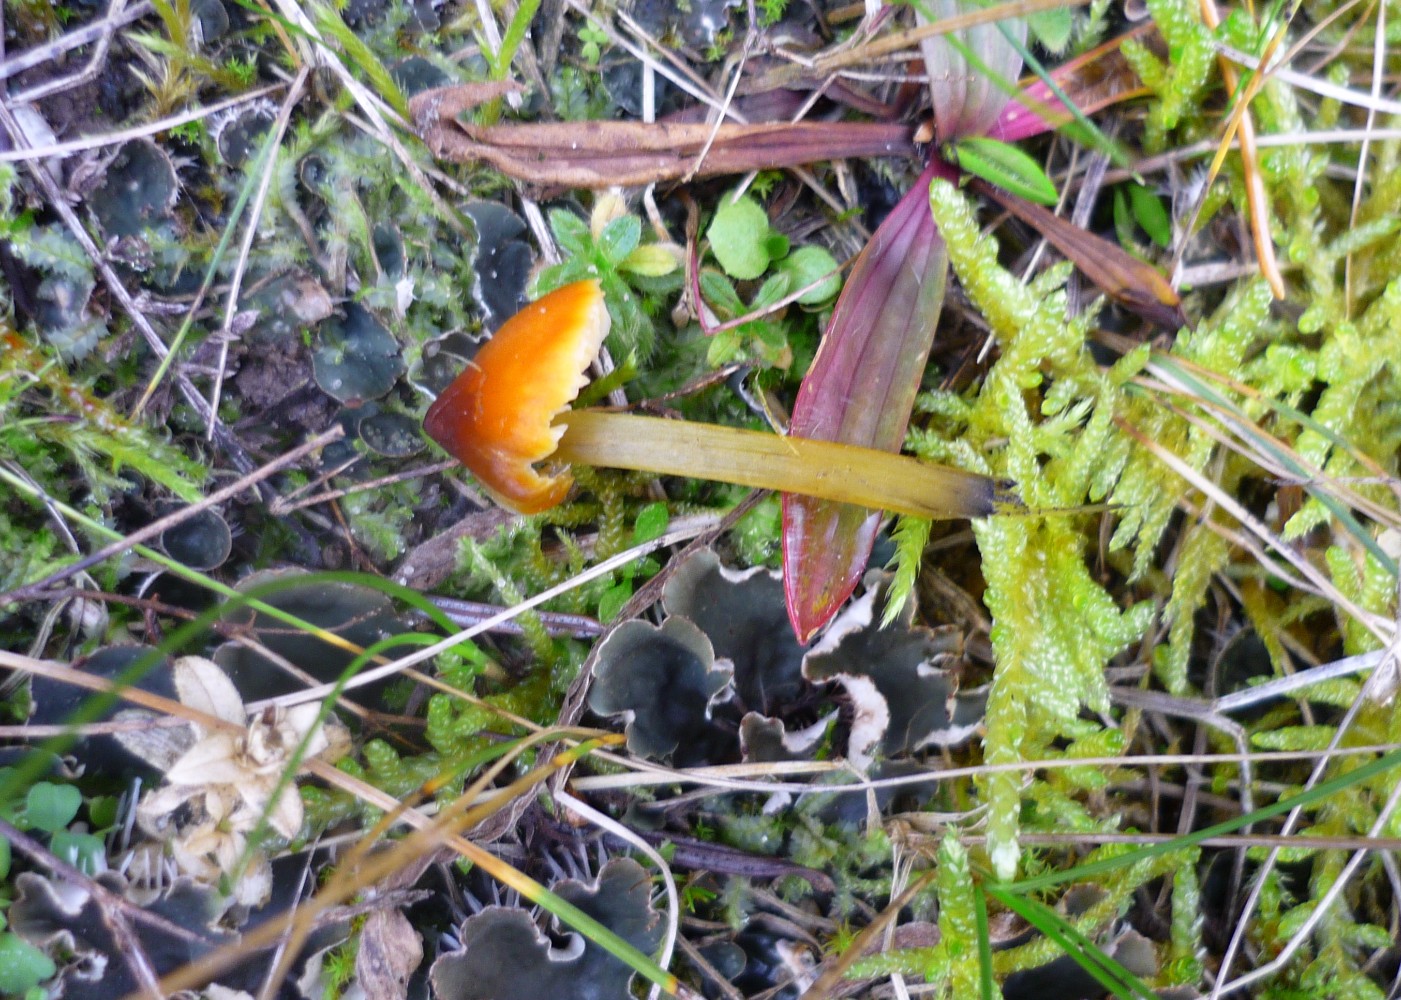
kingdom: Fungi
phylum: Basidiomycota
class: Agaricomycetes
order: Agaricales
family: Hygrophoraceae
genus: Hygrocybe
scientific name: Hygrocybe conica
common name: kegle-vokshat
